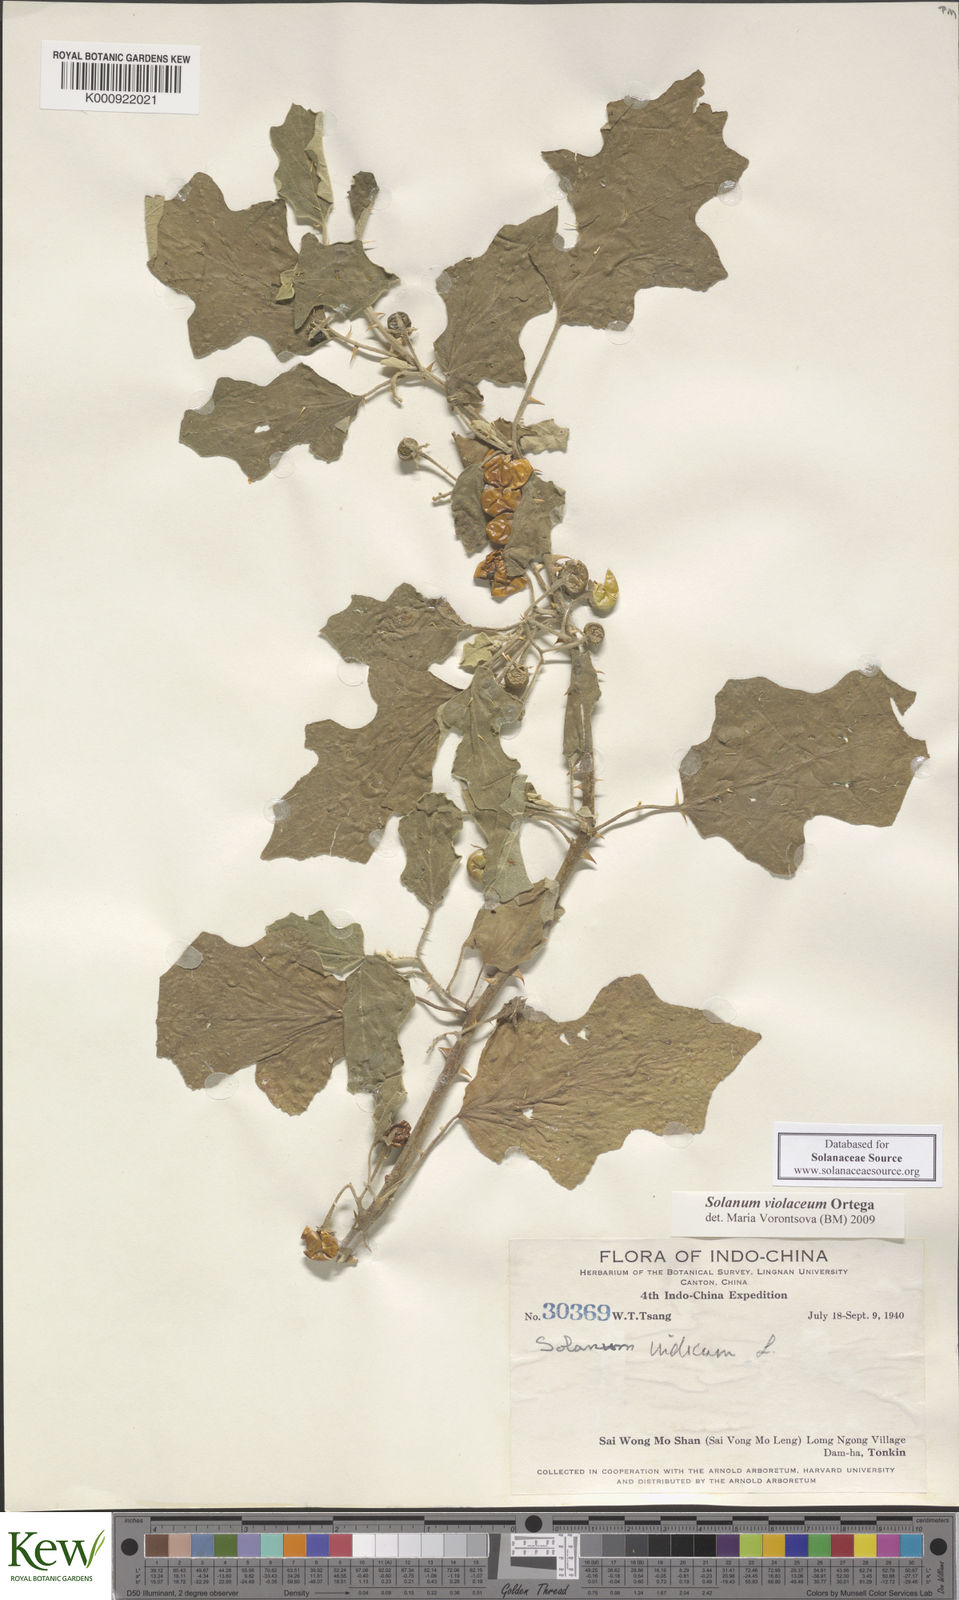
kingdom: Plantae
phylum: Tracheophyta
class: Magnoliopsida
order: Solanales
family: Solanaceae
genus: Solanum
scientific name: Solanum violaceum
